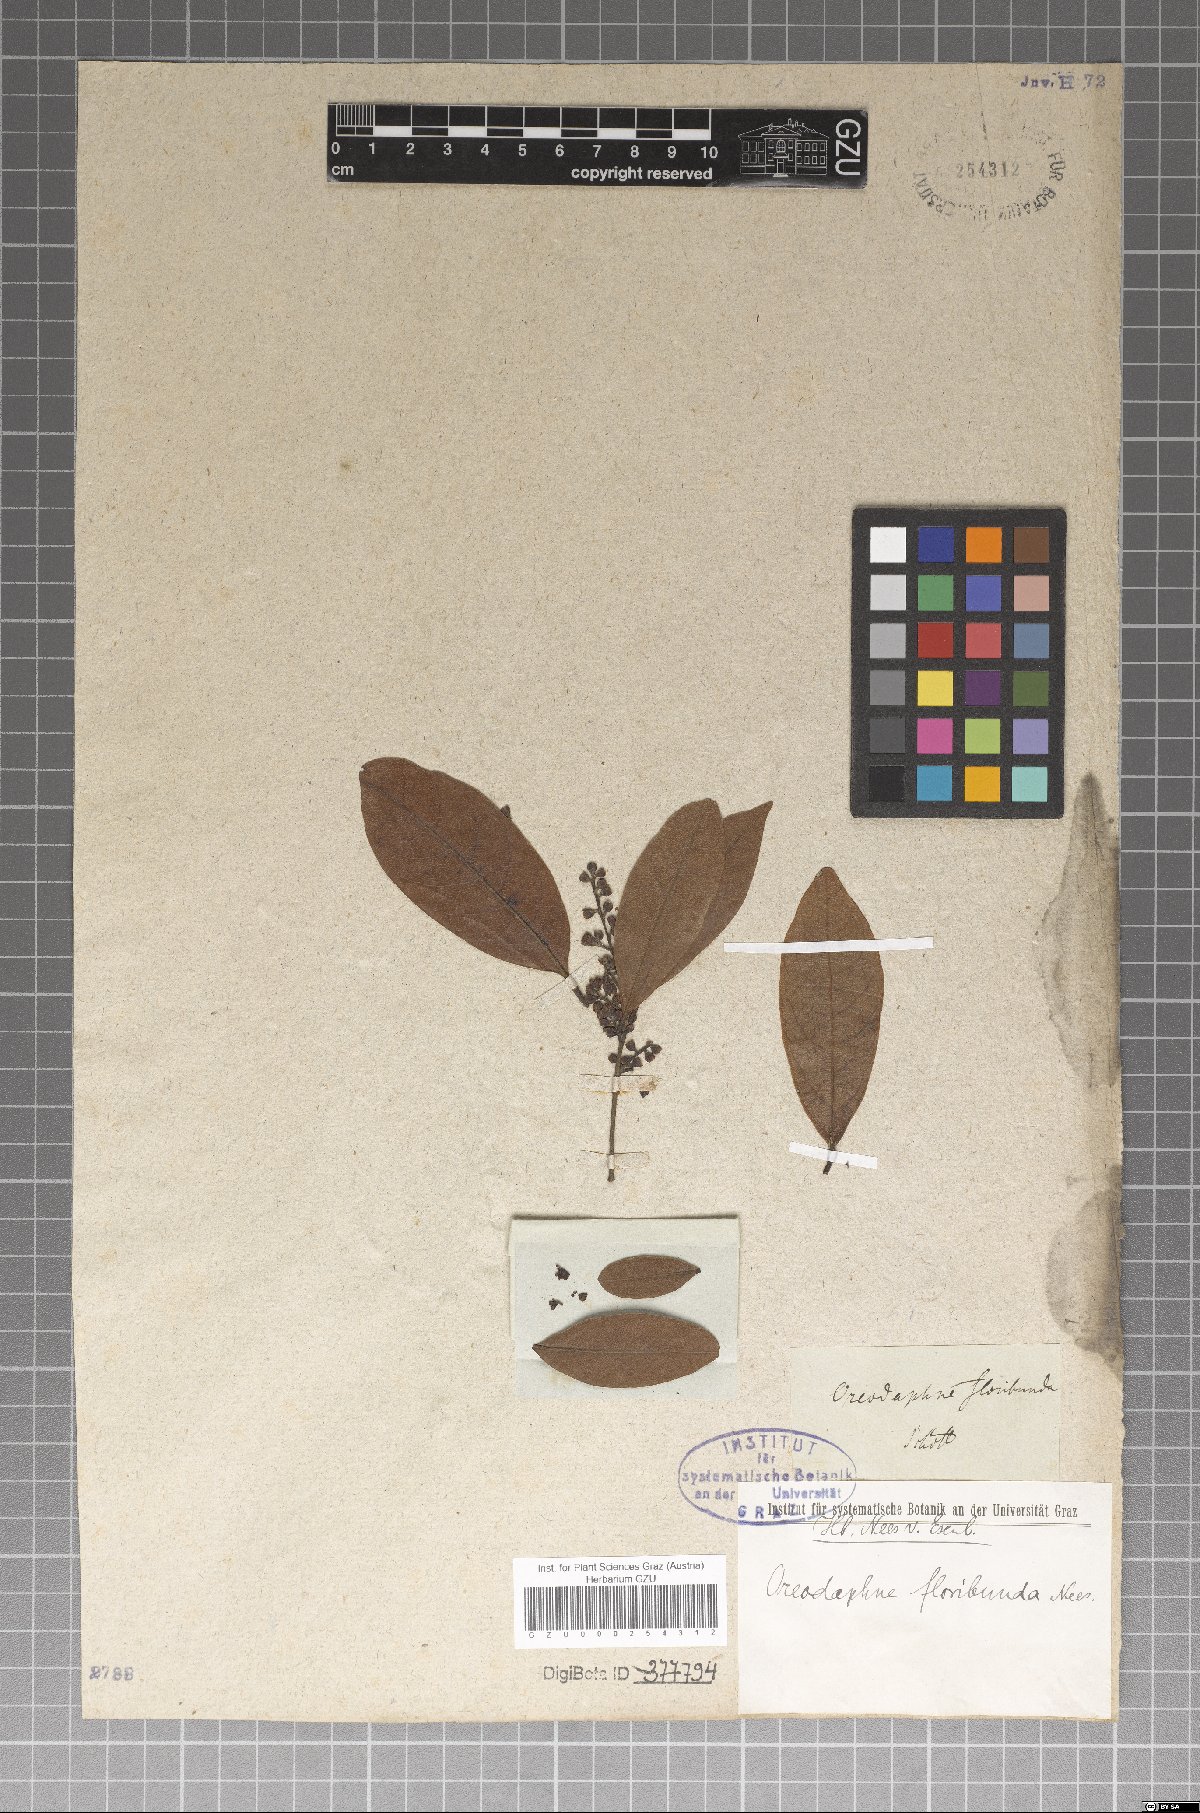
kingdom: Plantae
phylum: Tracheophyta
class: Magnoliopsida
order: Laurales
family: Lauraceae
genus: Ocotea
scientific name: Ocotea floribunda
